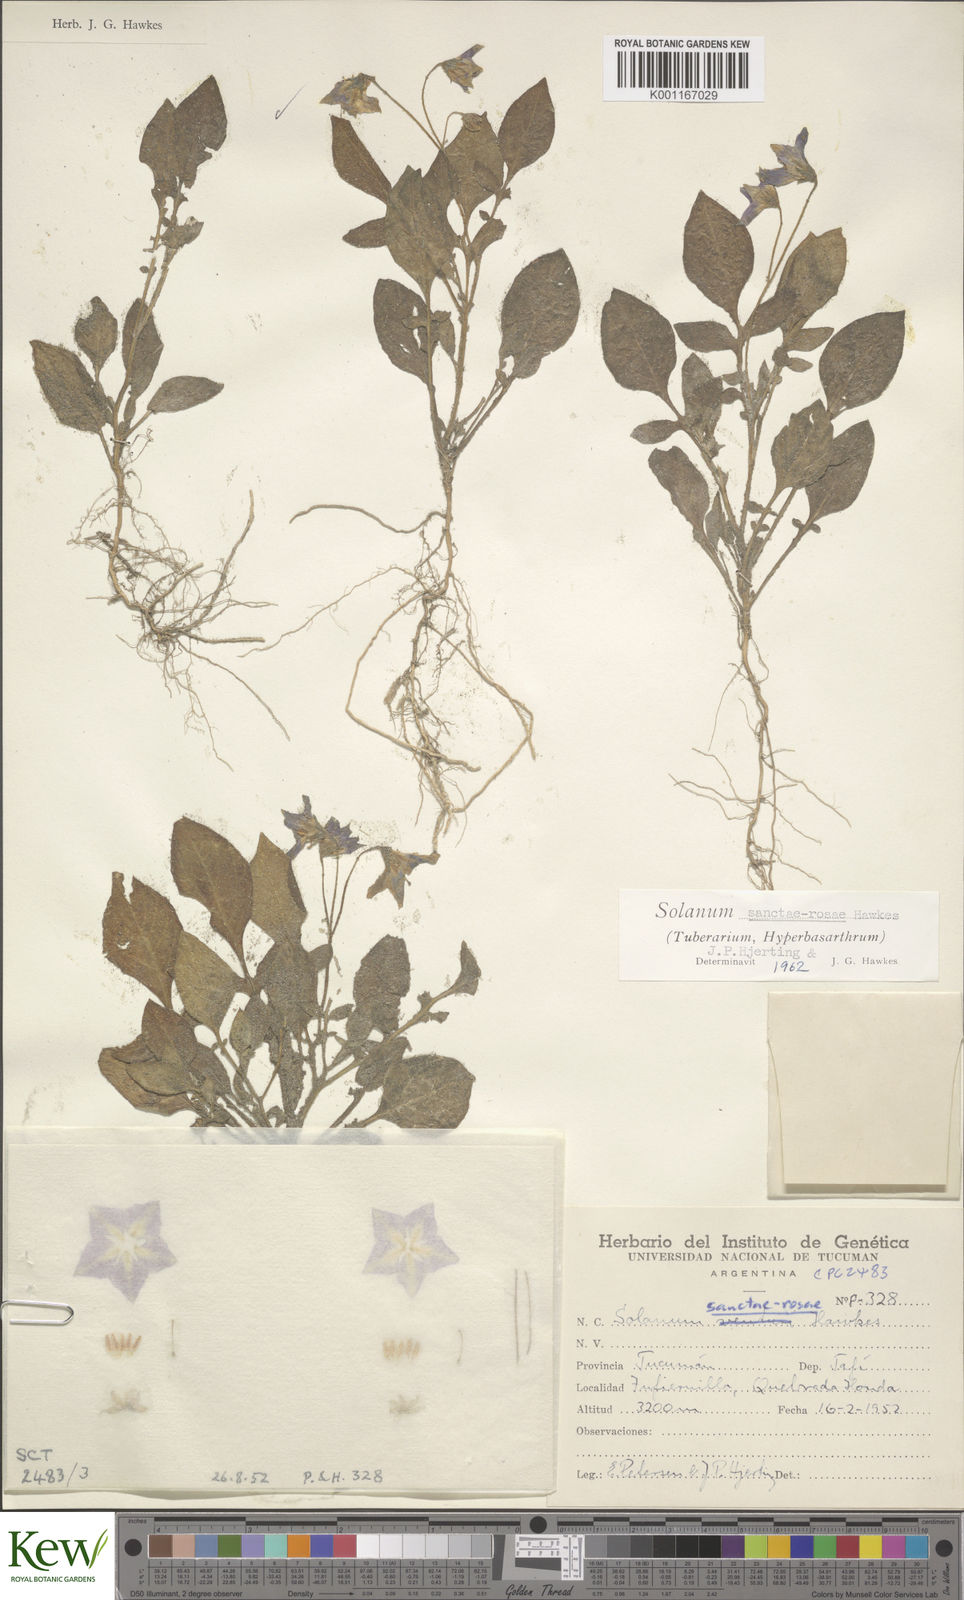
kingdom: Plantae
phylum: Tracheophyta
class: Magnoliopsida
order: Solanales
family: Solanaceae
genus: Solanum
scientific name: Solanum boliviense
